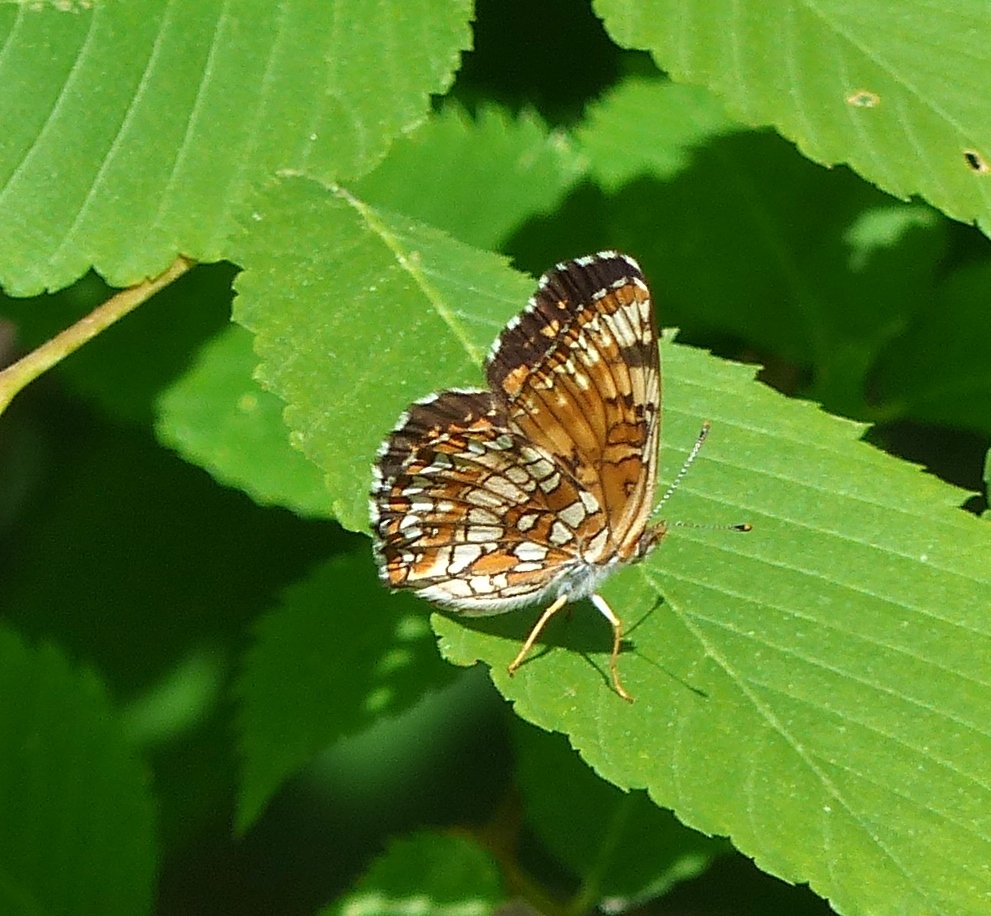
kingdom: Animalia
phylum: Arthropoda
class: Insecta
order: Lepidoptera
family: Nymphalidae
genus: Chlosyne
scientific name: Chlosyne harrisii
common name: Harris's Checkerspot
